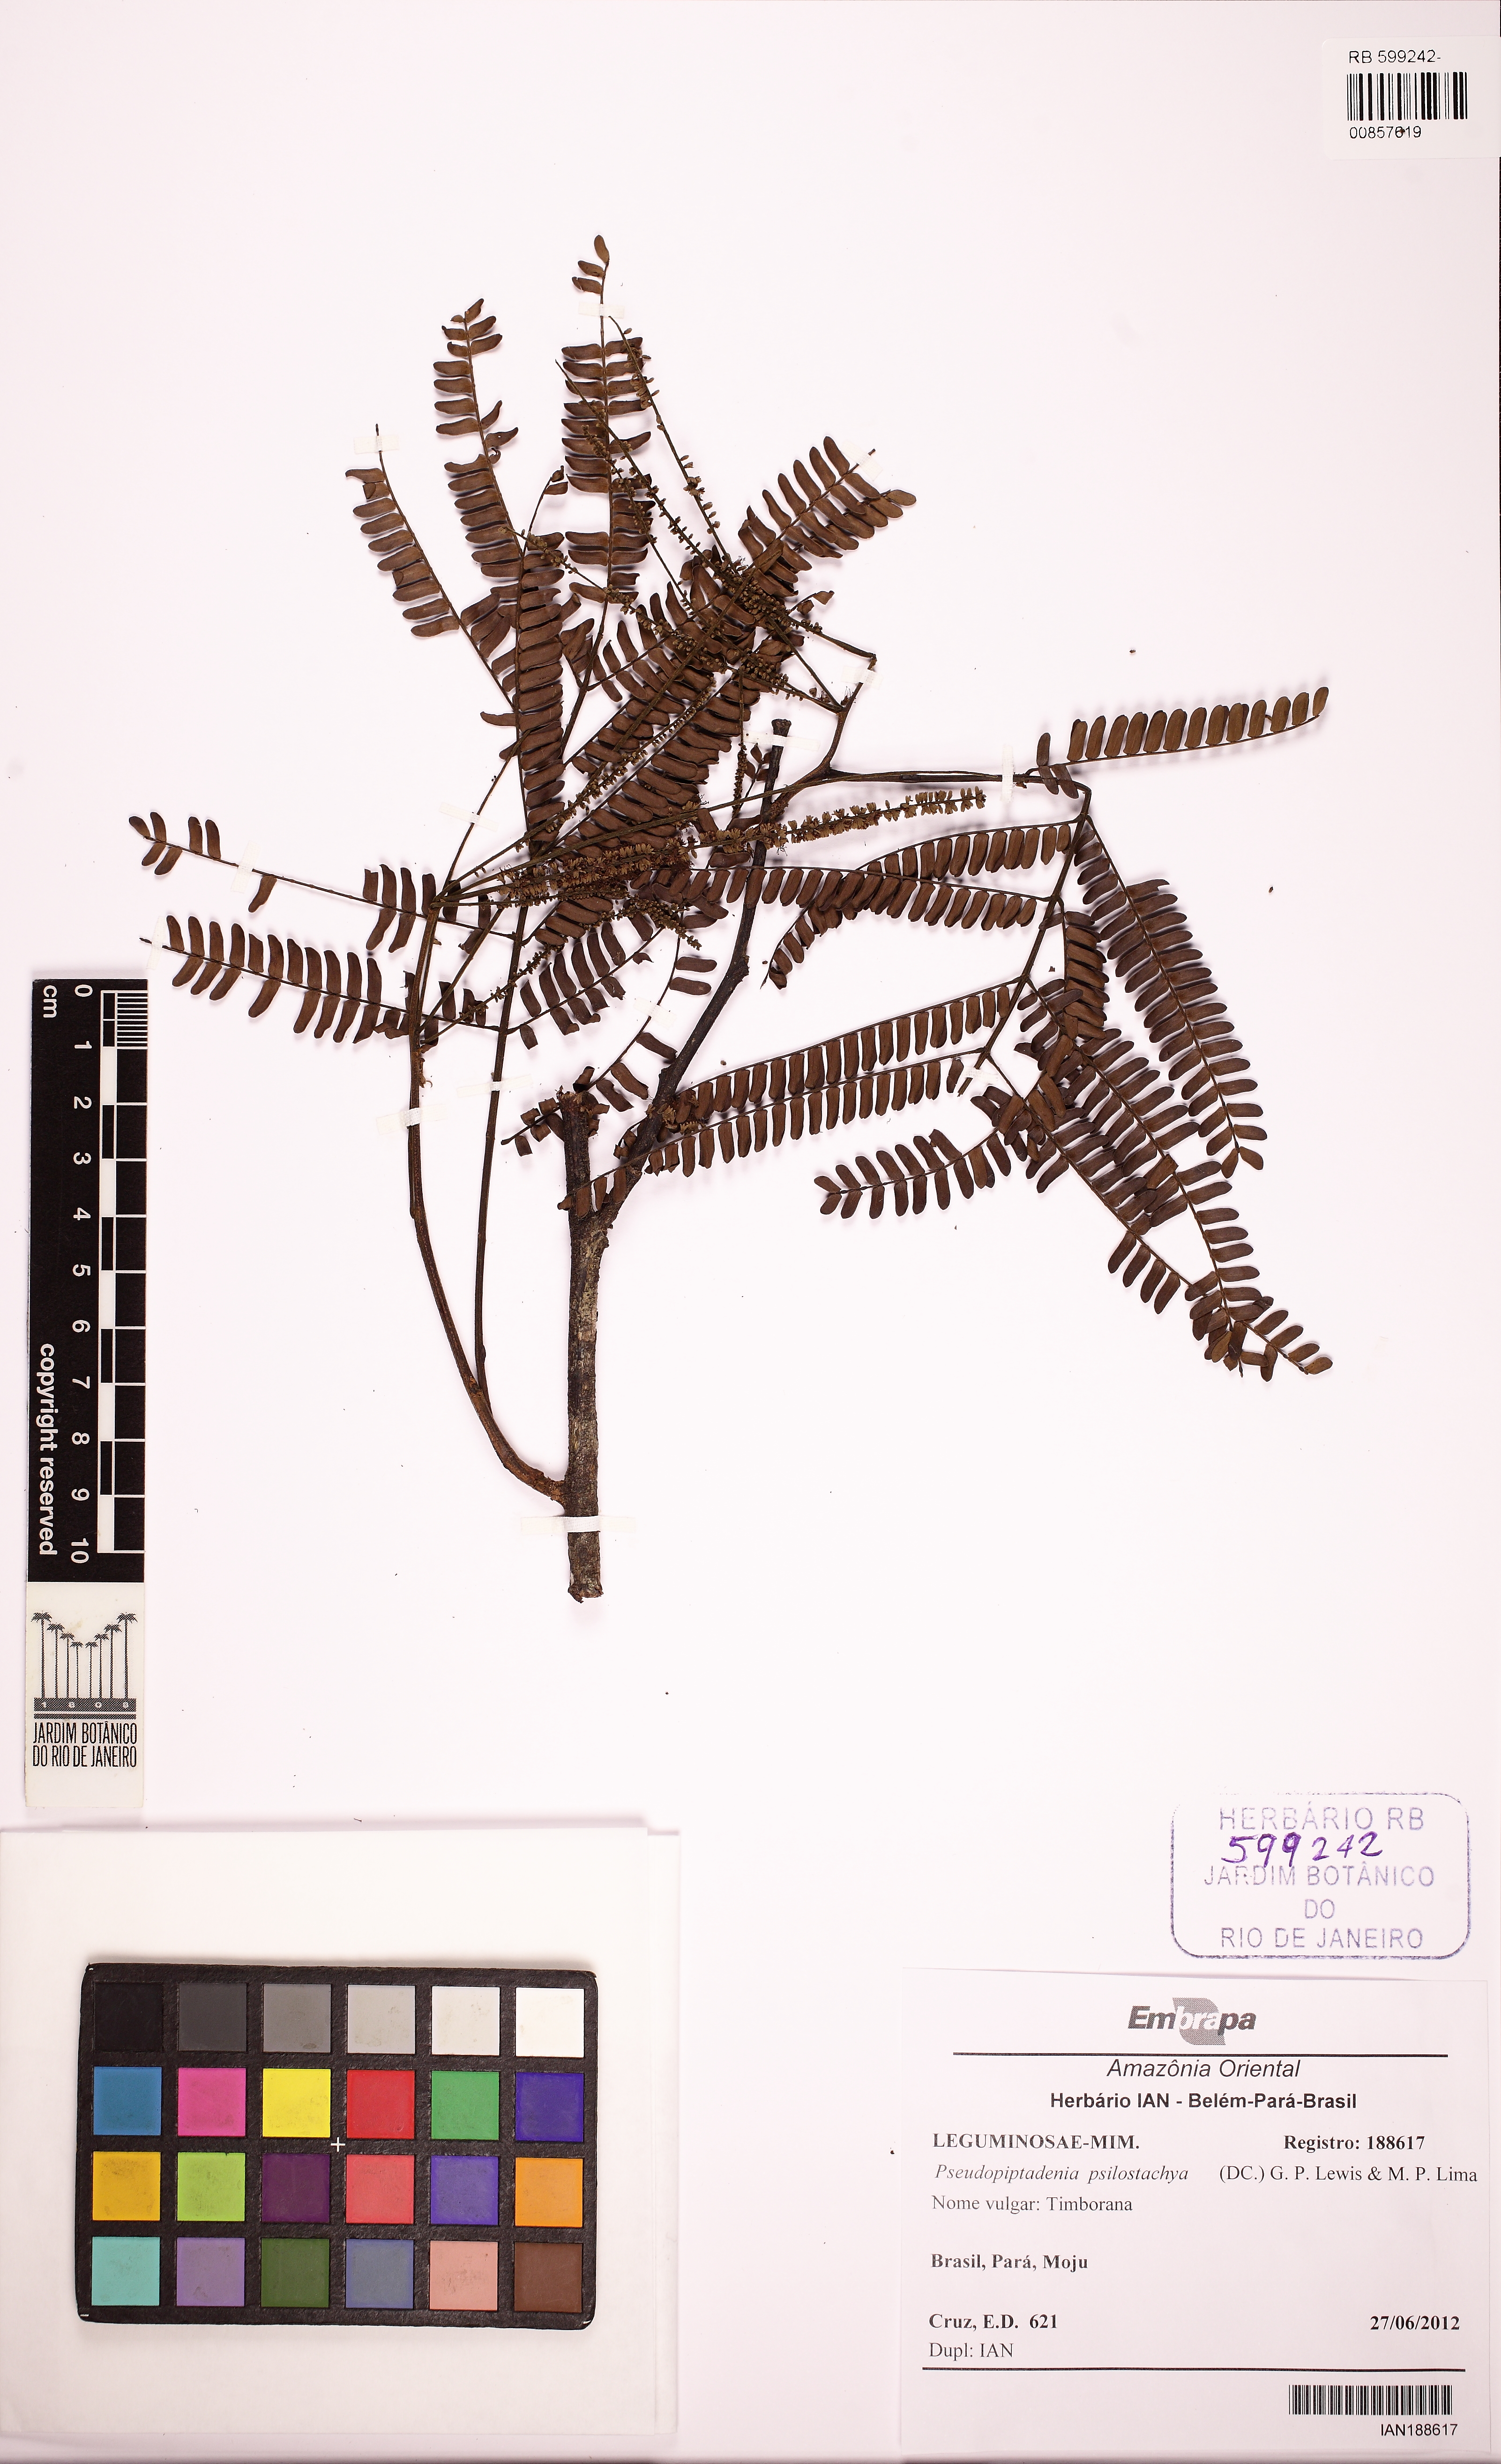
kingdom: Plantae
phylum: Tracheophyta
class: Magnoliopsida
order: Fabales
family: Fabaceae
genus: Pseudopiptadenia
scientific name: Pseudopiptadenia psilostachya
